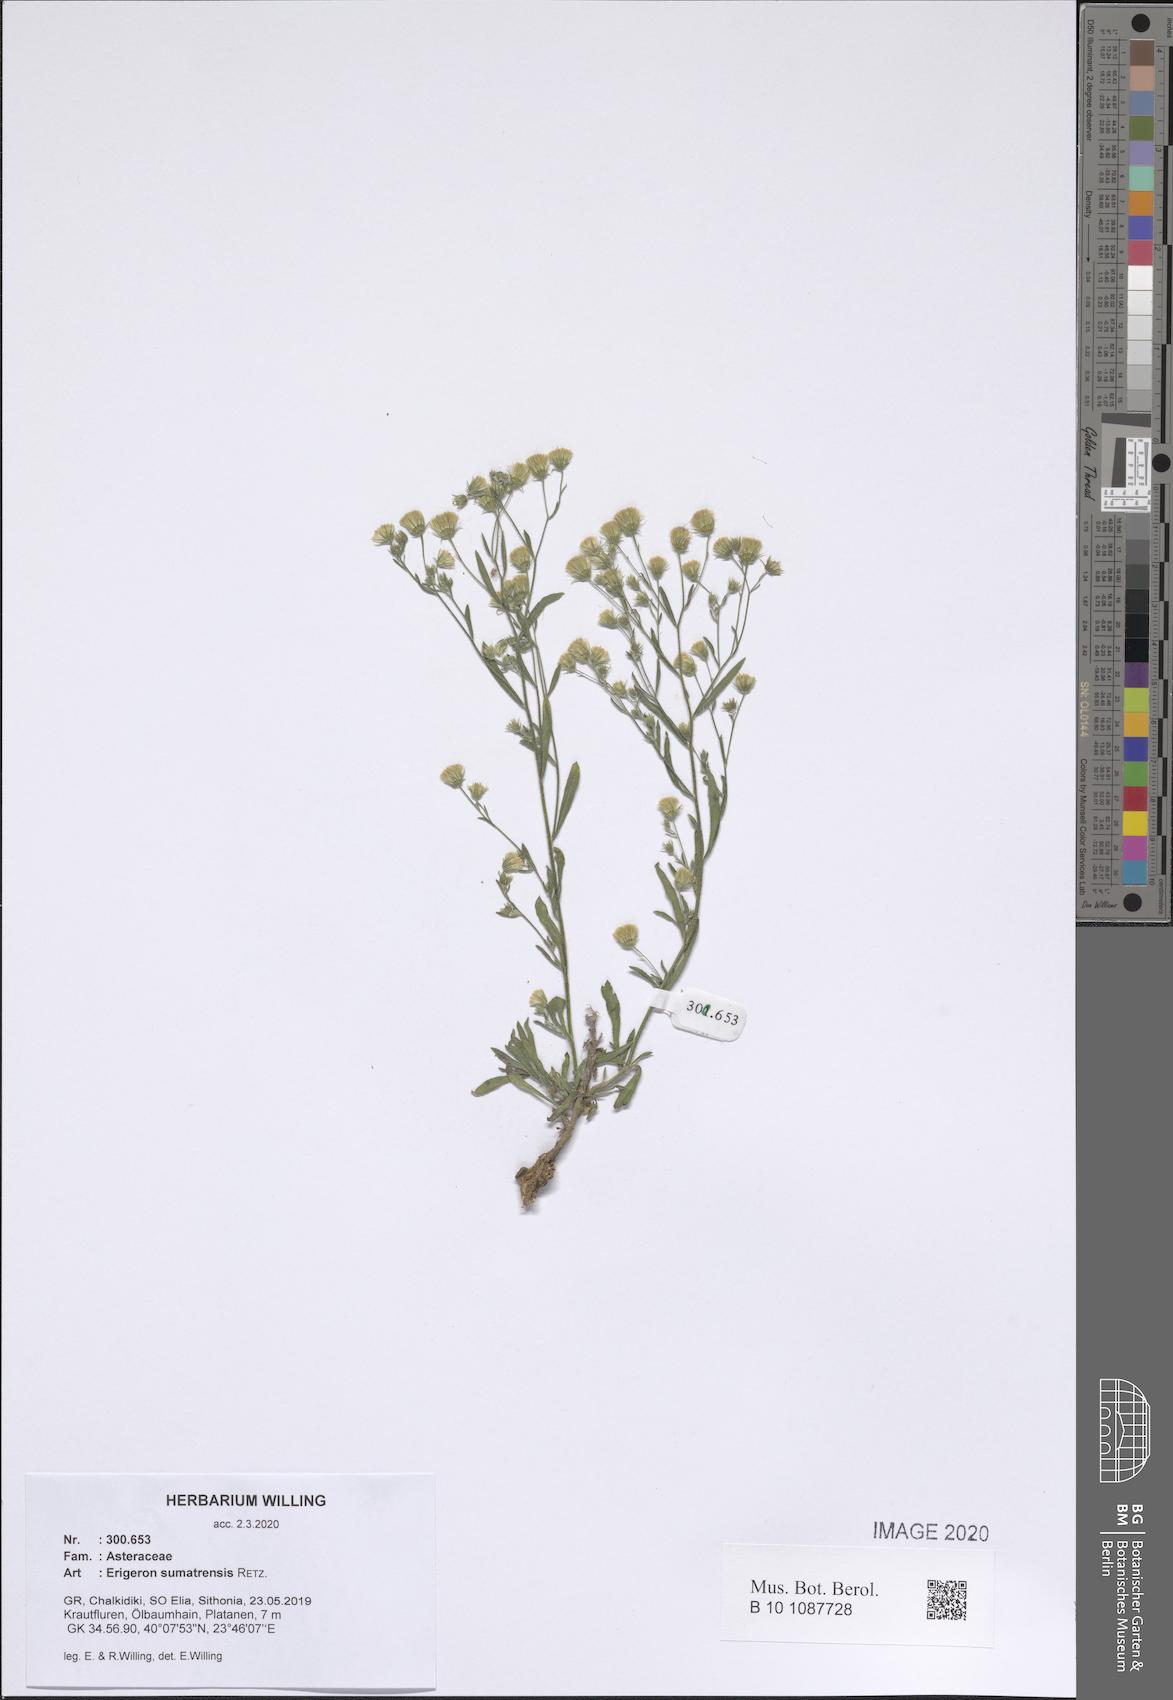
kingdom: Plantae
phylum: Tracheophyta
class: Magnoliopsida
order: Asterales
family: Asteraceae
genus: Erigeron
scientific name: Erigeron sumatrensis
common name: Daisy
